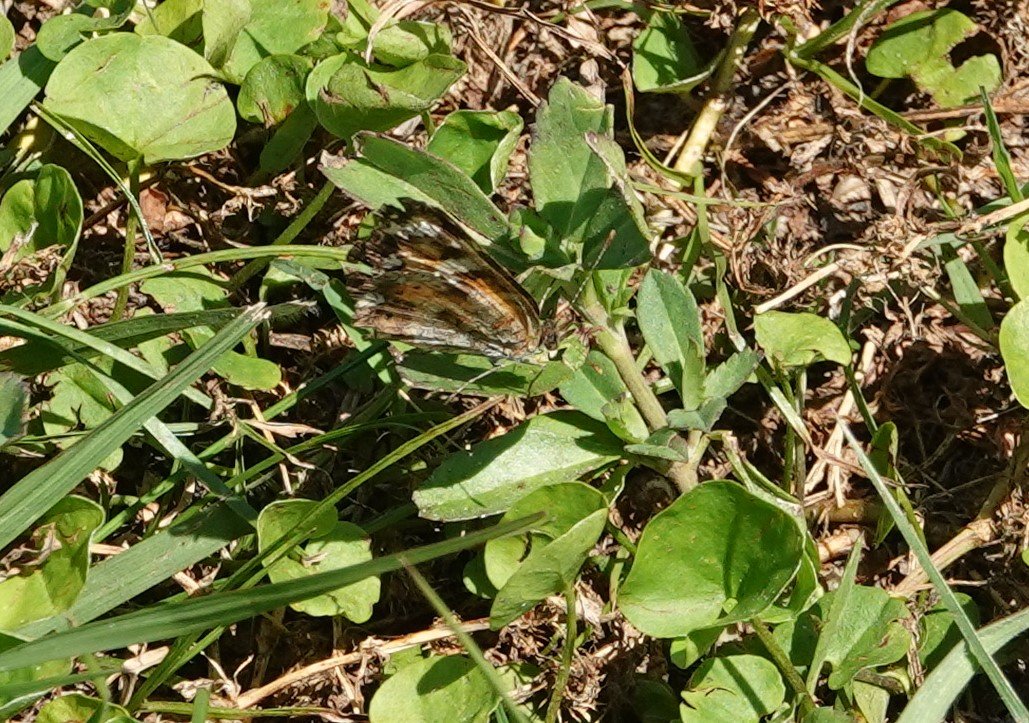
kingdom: Animalia
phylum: Arthropoda
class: Insecta
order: Lepidoptera
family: Nymphalidae
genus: Phyciodes
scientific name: Phyciodes phaon
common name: Phaon Crescent
